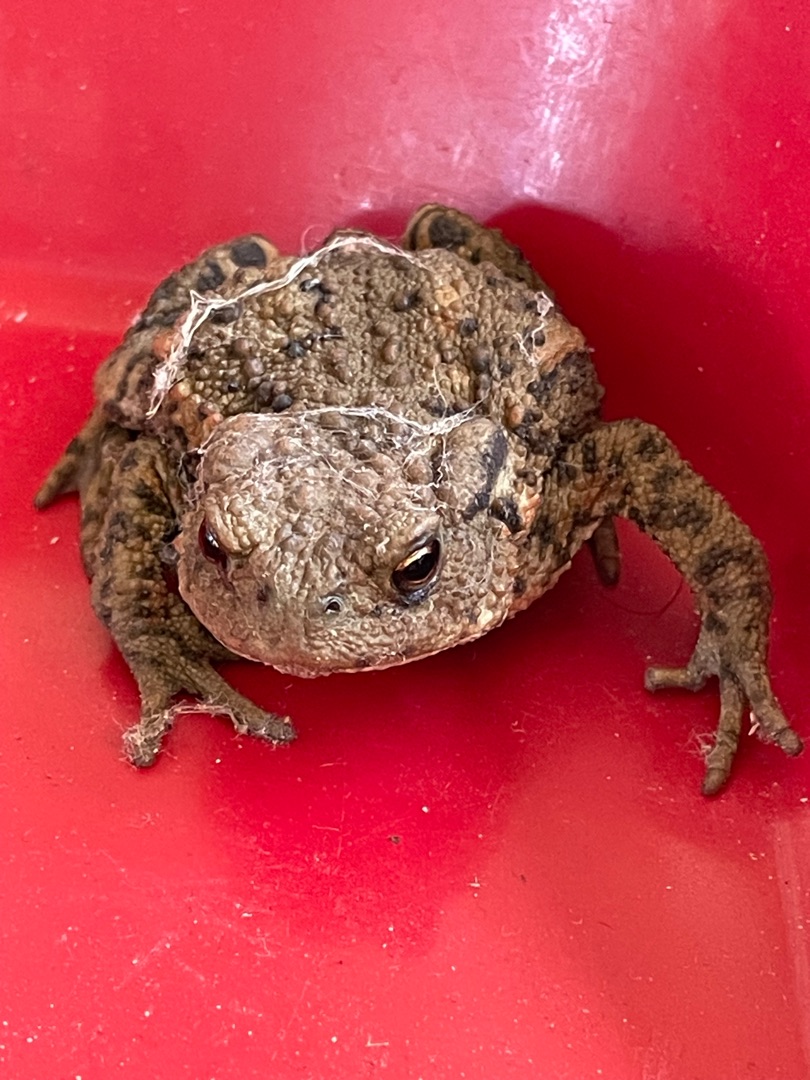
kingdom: Animalia
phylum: Chordata
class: Amphibia
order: Anura
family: Bufonidae
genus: Bufo
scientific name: Bufo bufo
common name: Skrubtudse
